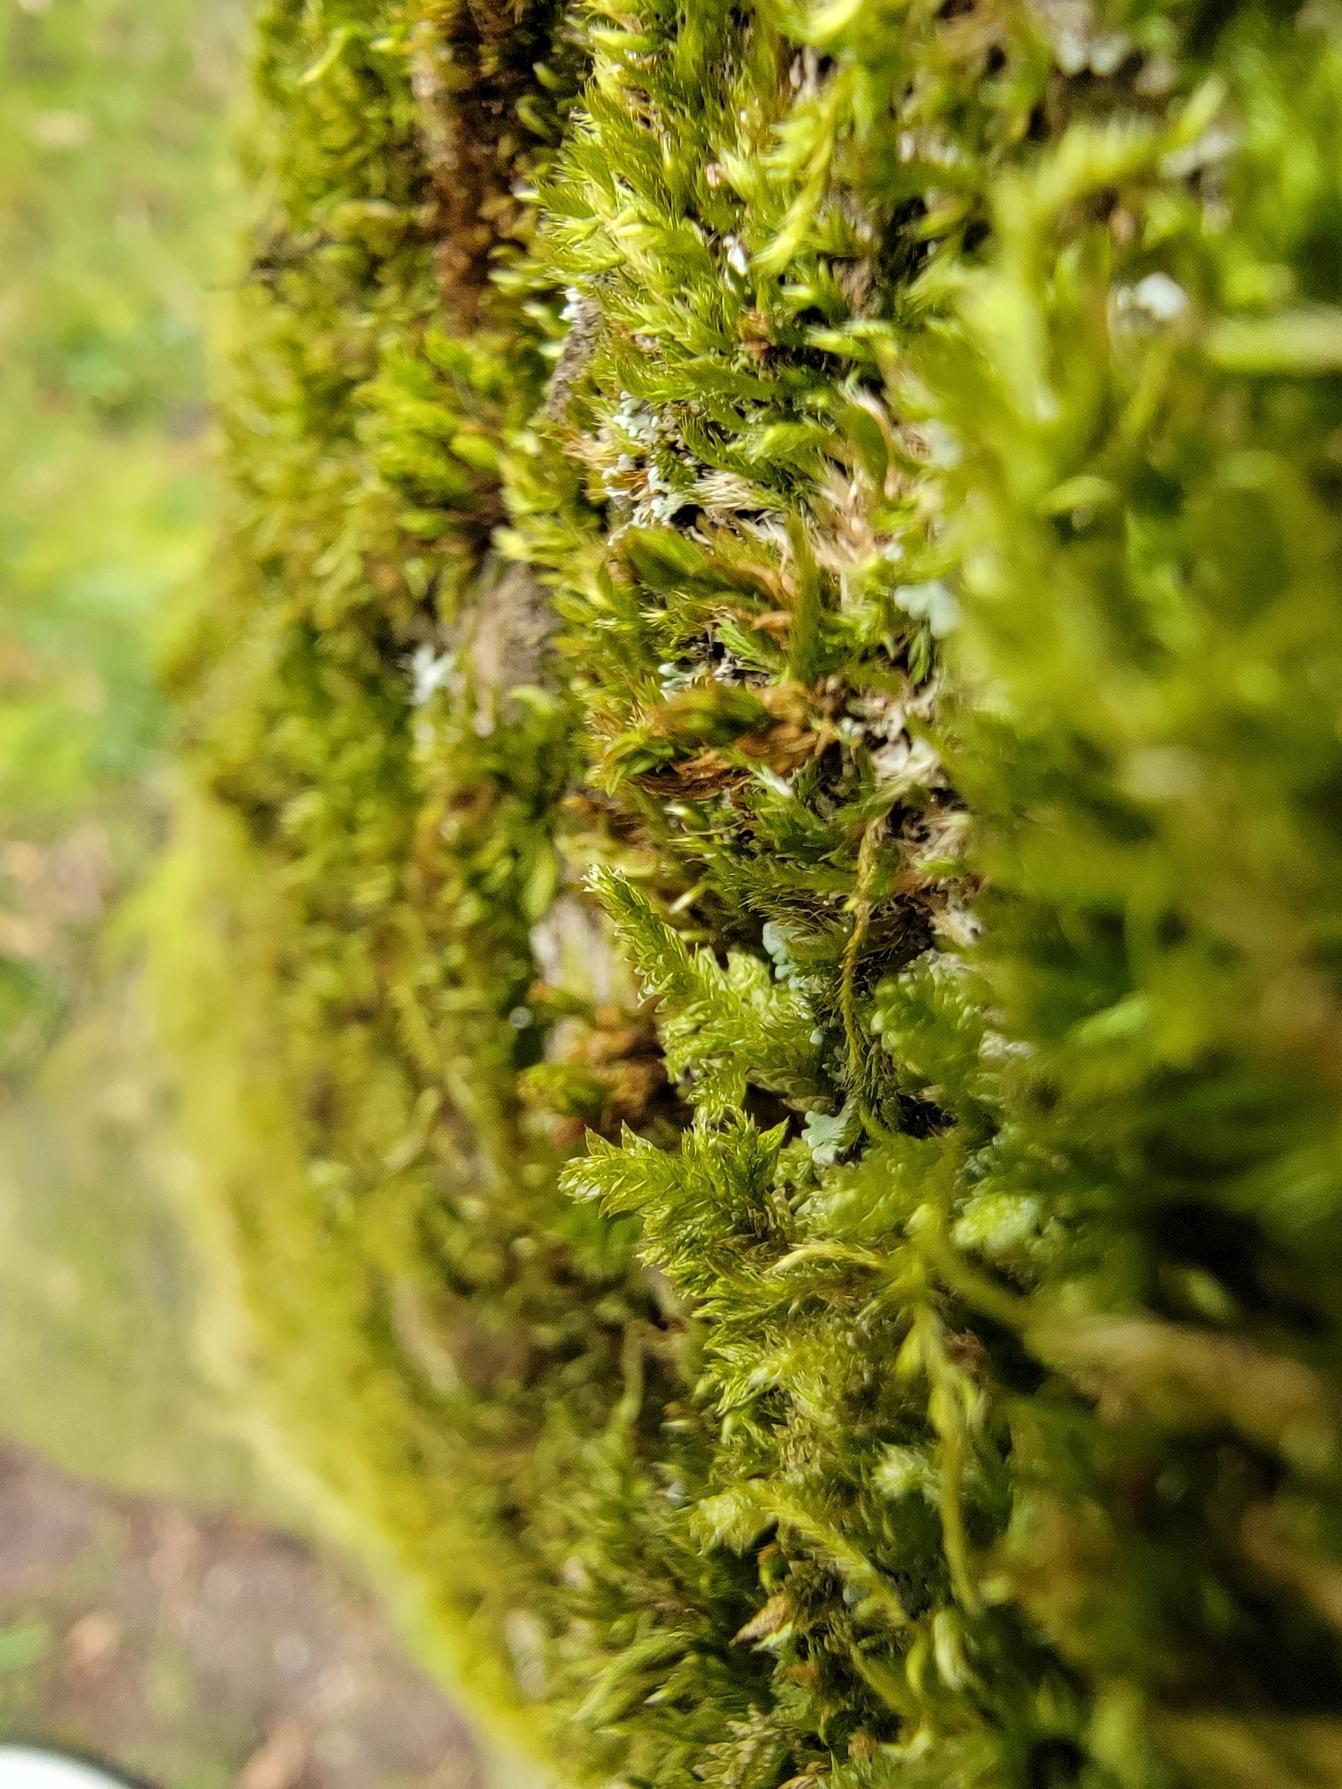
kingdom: Plantae
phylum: Bryophyta
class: Bryopsida
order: Hypnales
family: Neckeraceae
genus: Neckera
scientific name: Neckera pumila
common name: Lav fladmos
